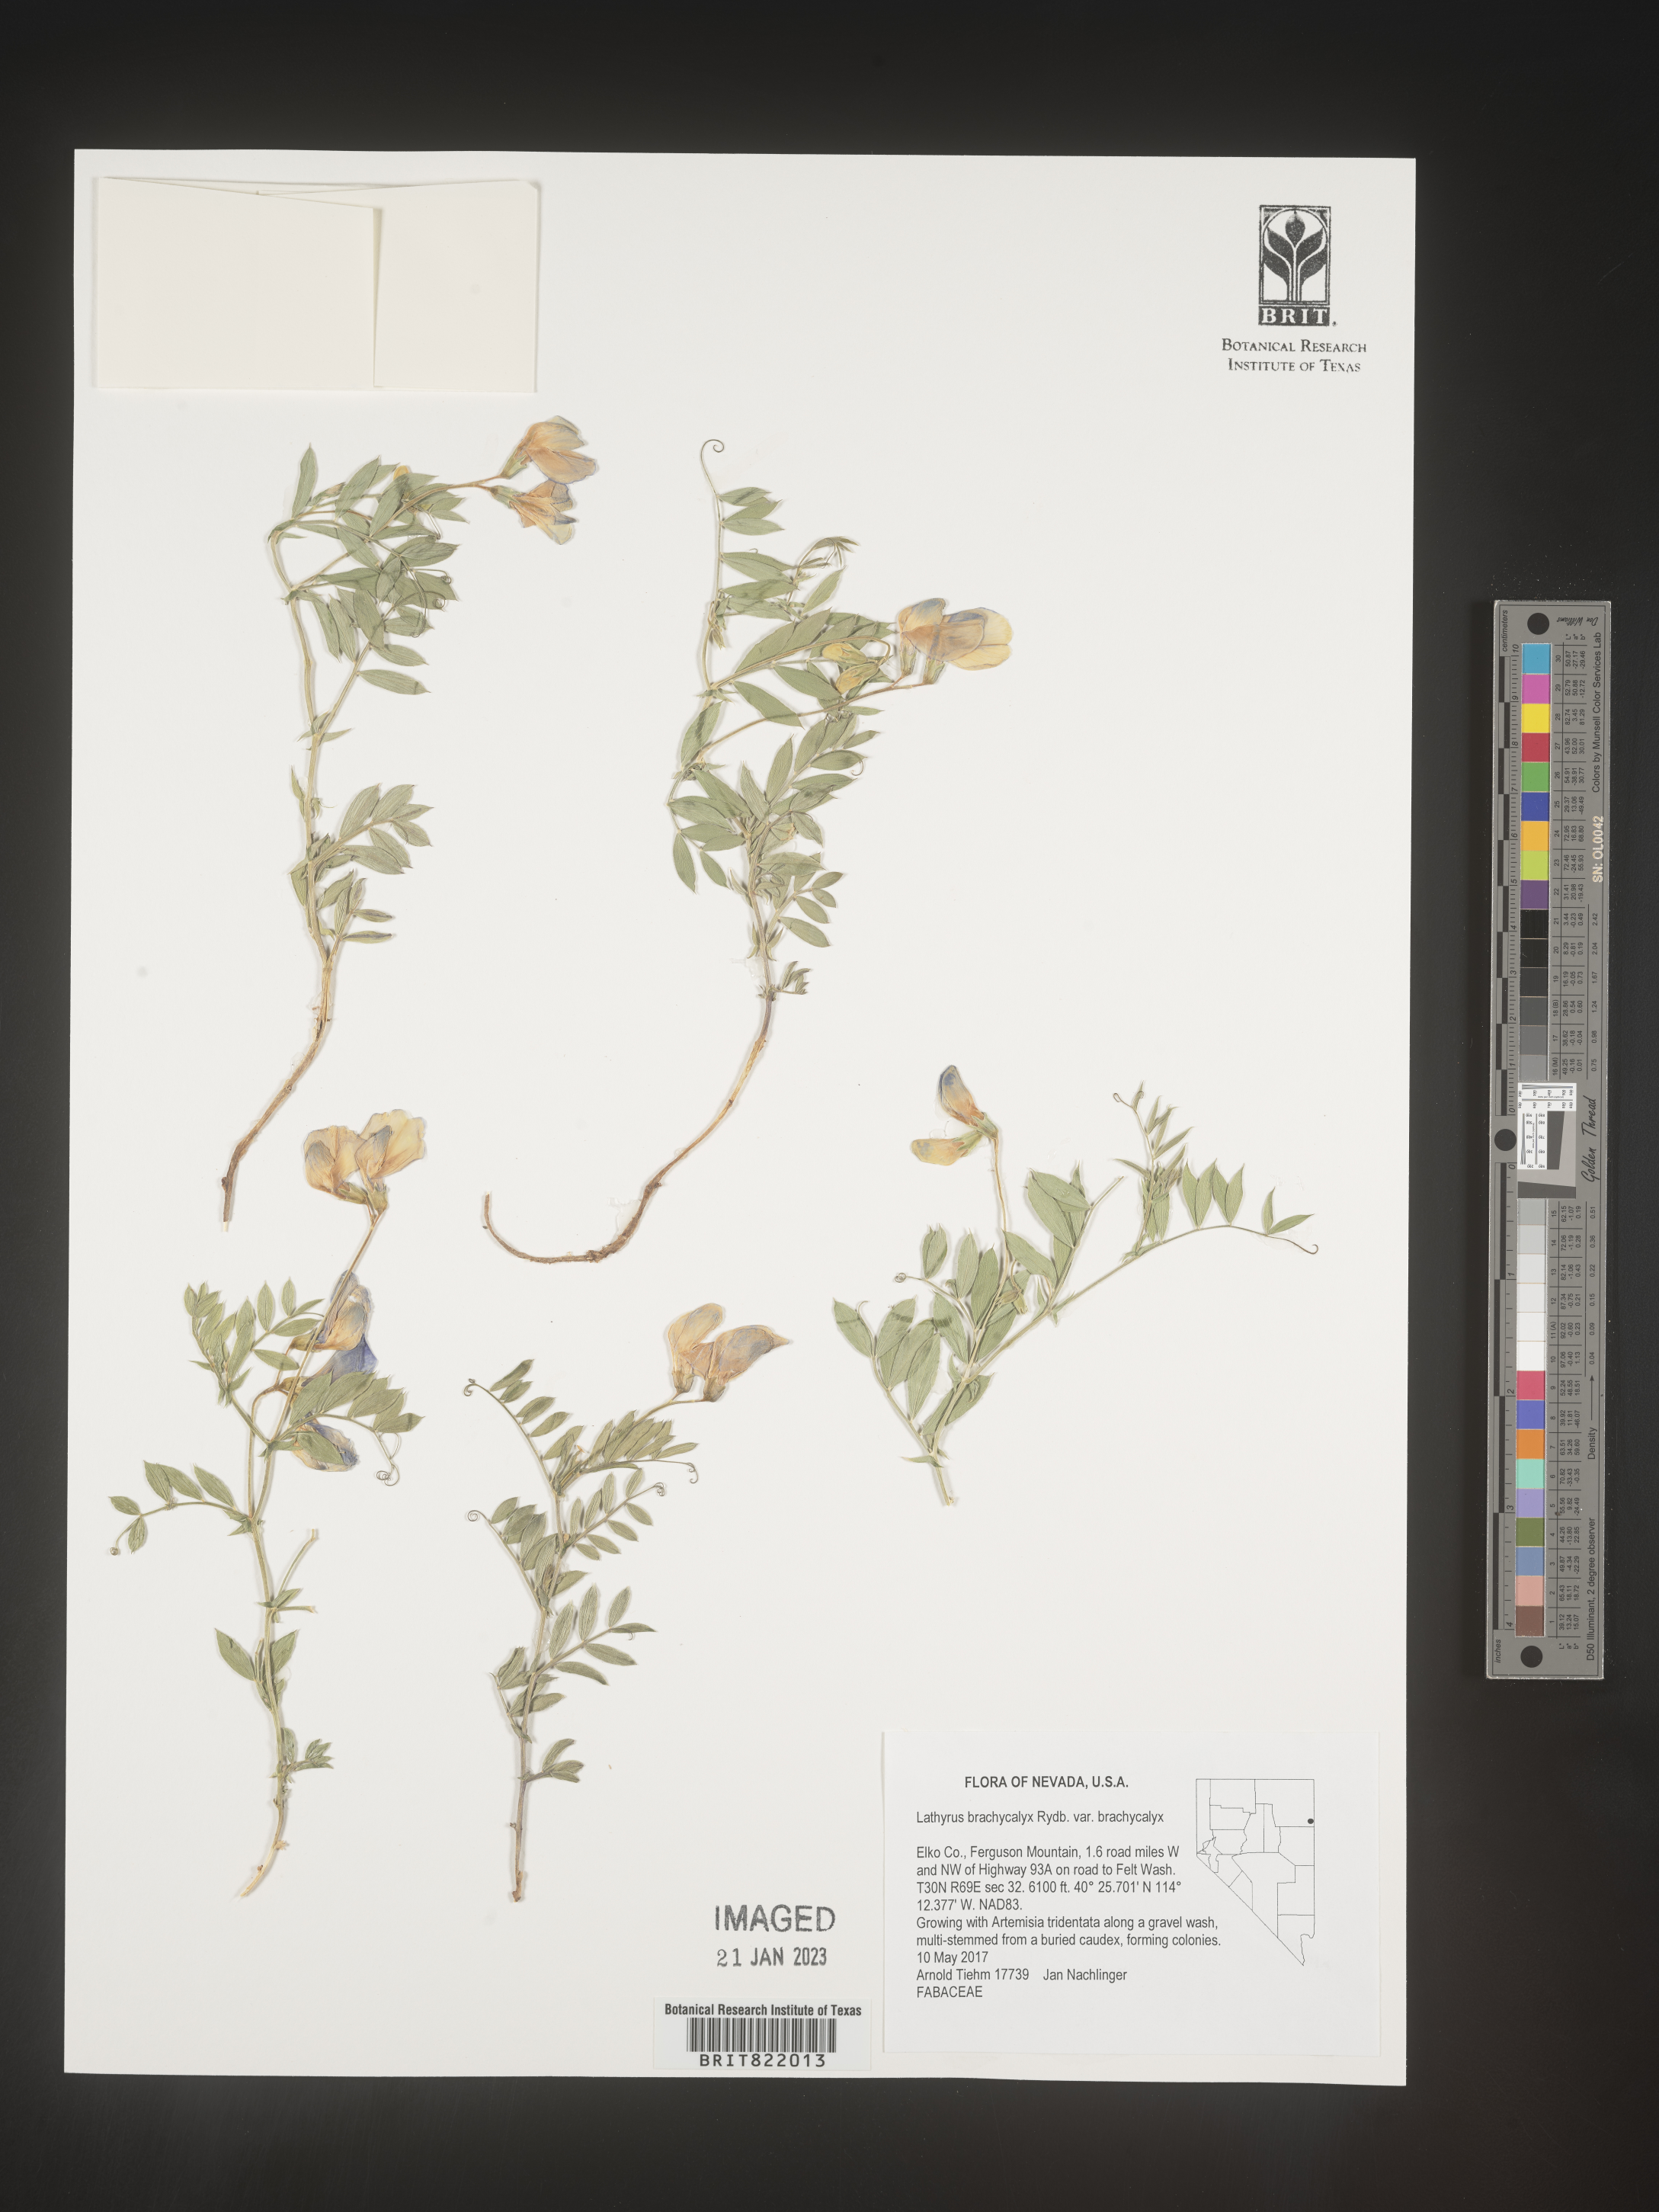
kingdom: Plantae
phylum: Tracheophyta
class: Magnoliopsida
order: Fabales
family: Fabaceae
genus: Lathyrus
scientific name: Lathyrus
